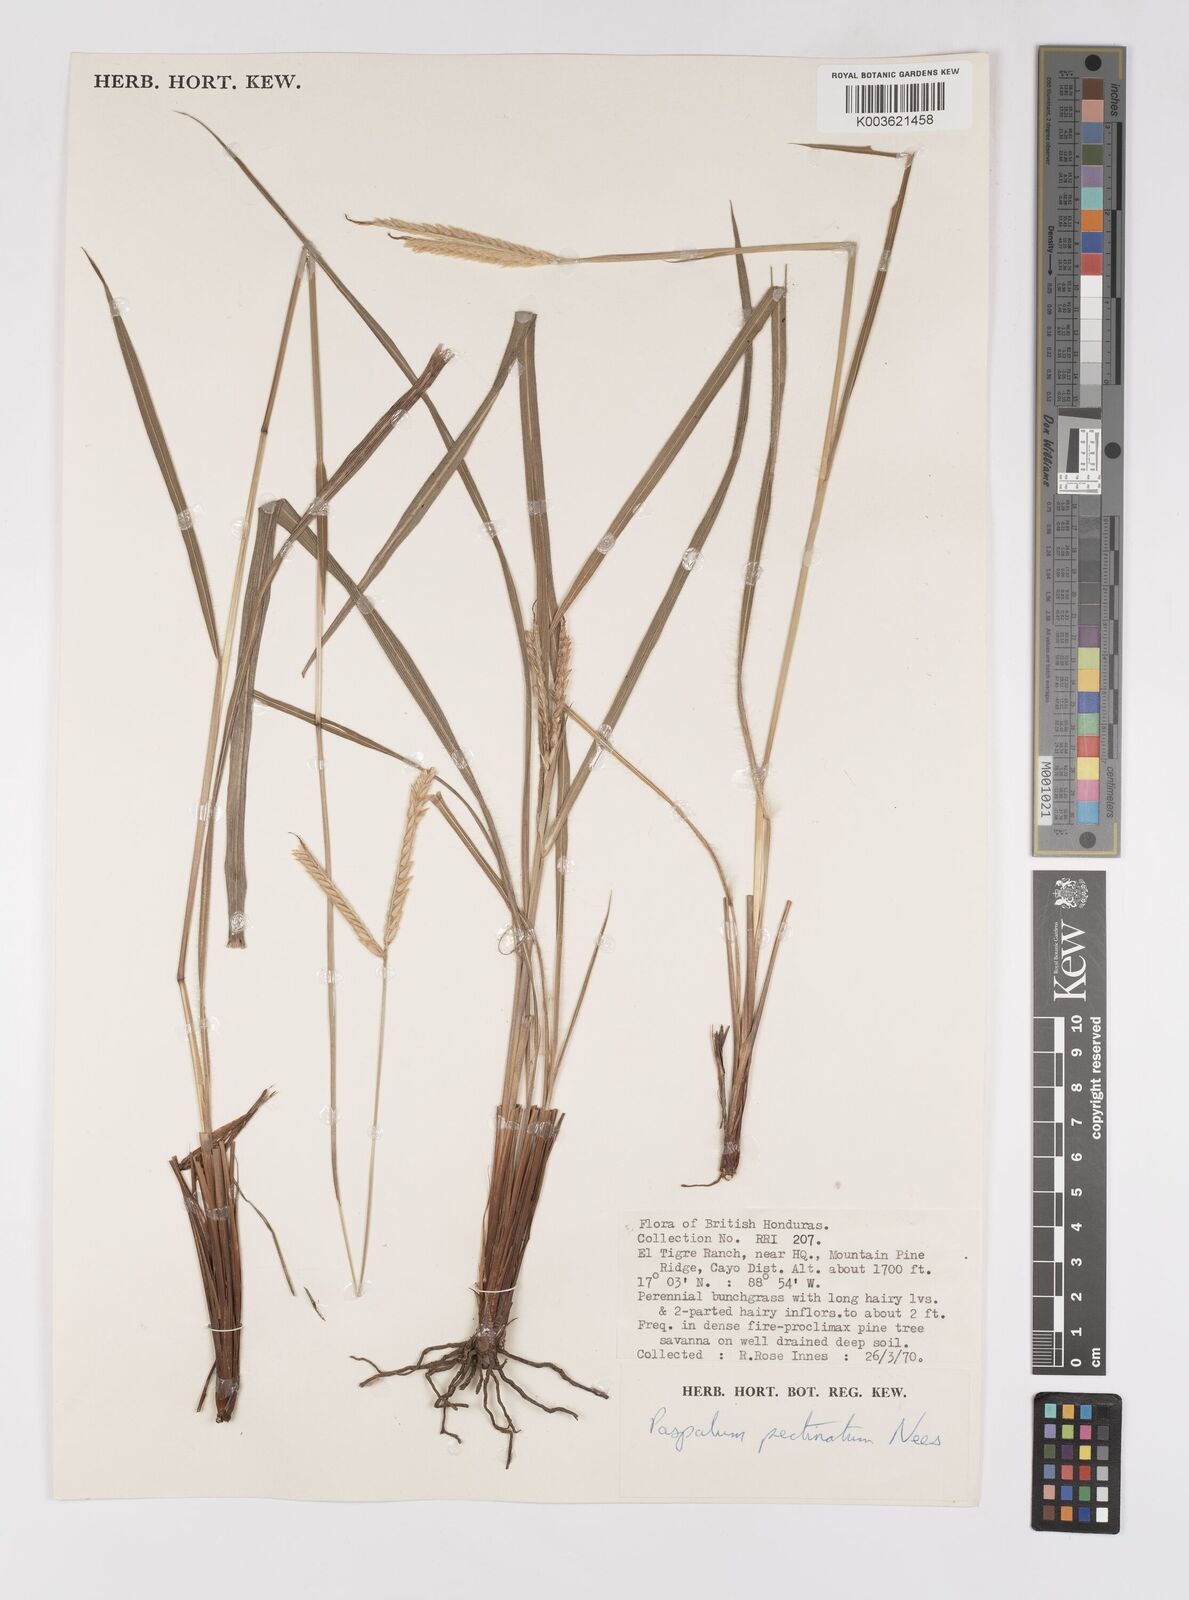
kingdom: Plantae
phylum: Tracheophyta
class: Liliopsida
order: Poales
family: Poaceae
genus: Paspalum
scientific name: Paspalum pectinatum
